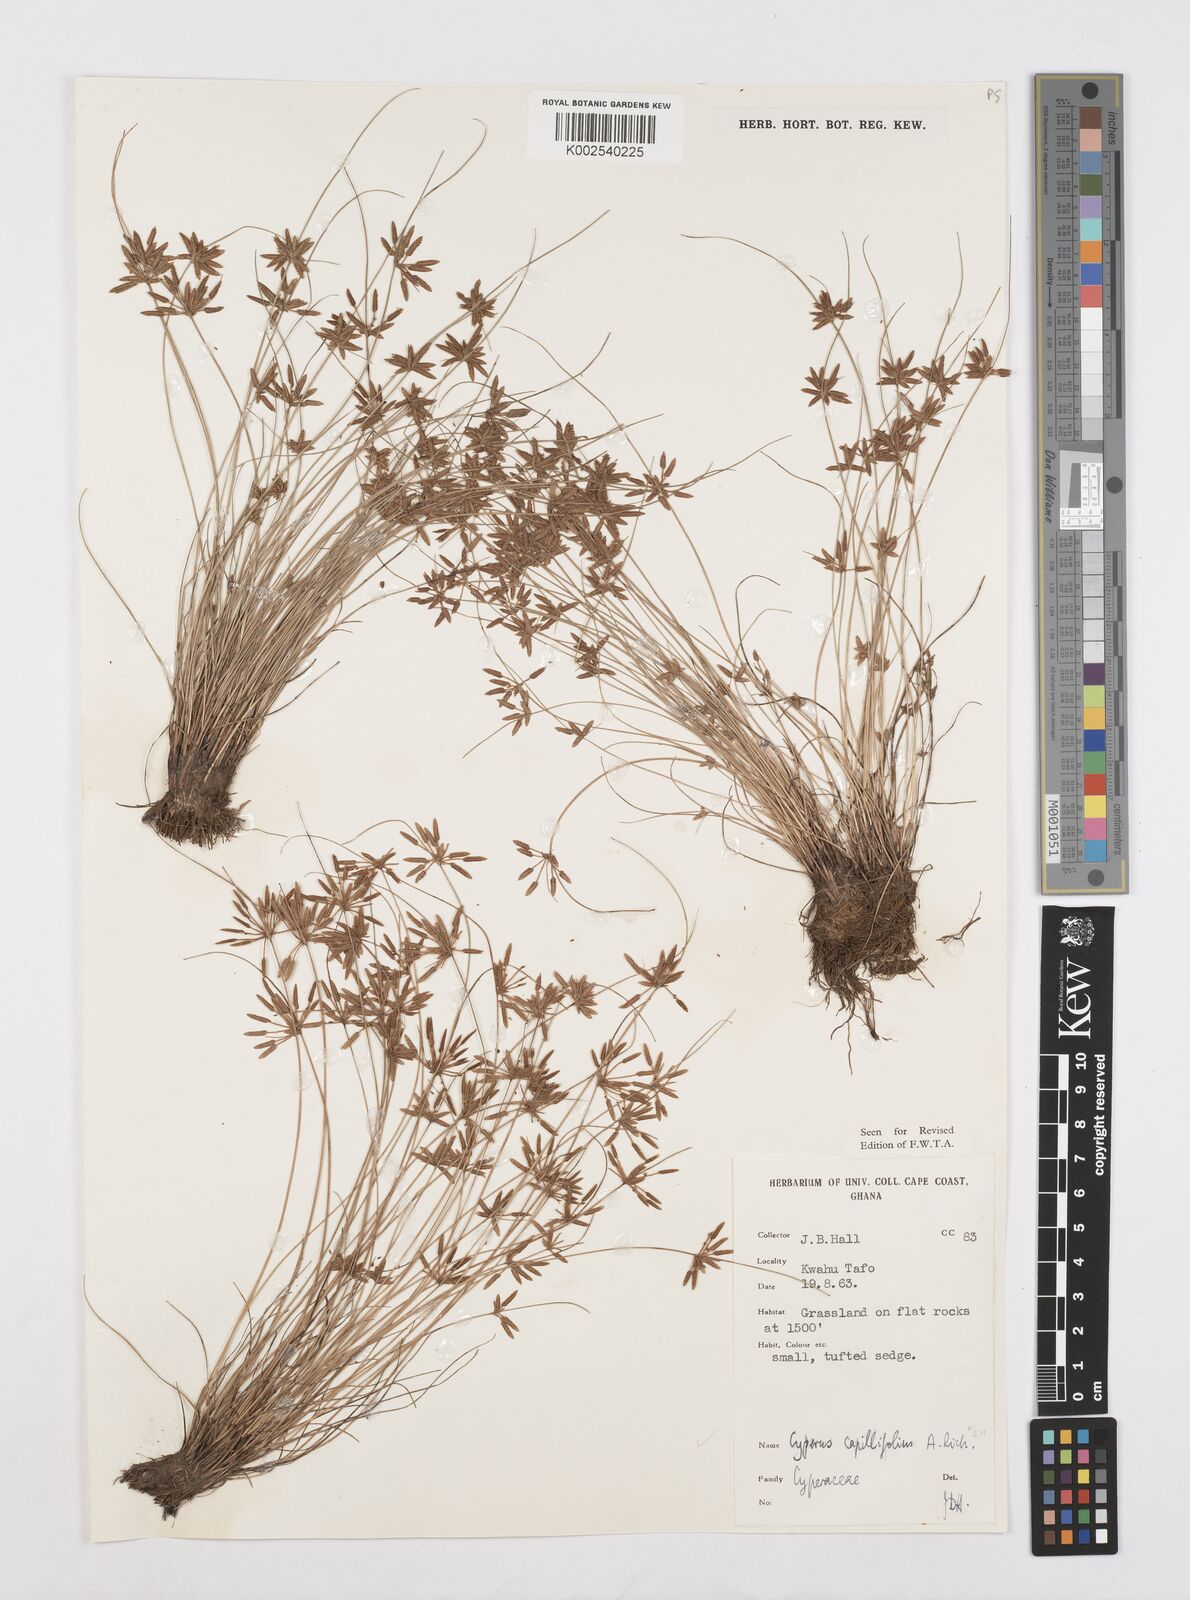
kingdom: Plantae
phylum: Tracheophyta
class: Liliopsida
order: Poales
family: Cyperaceae
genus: Cyperus
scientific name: Cyperus capillifolius
